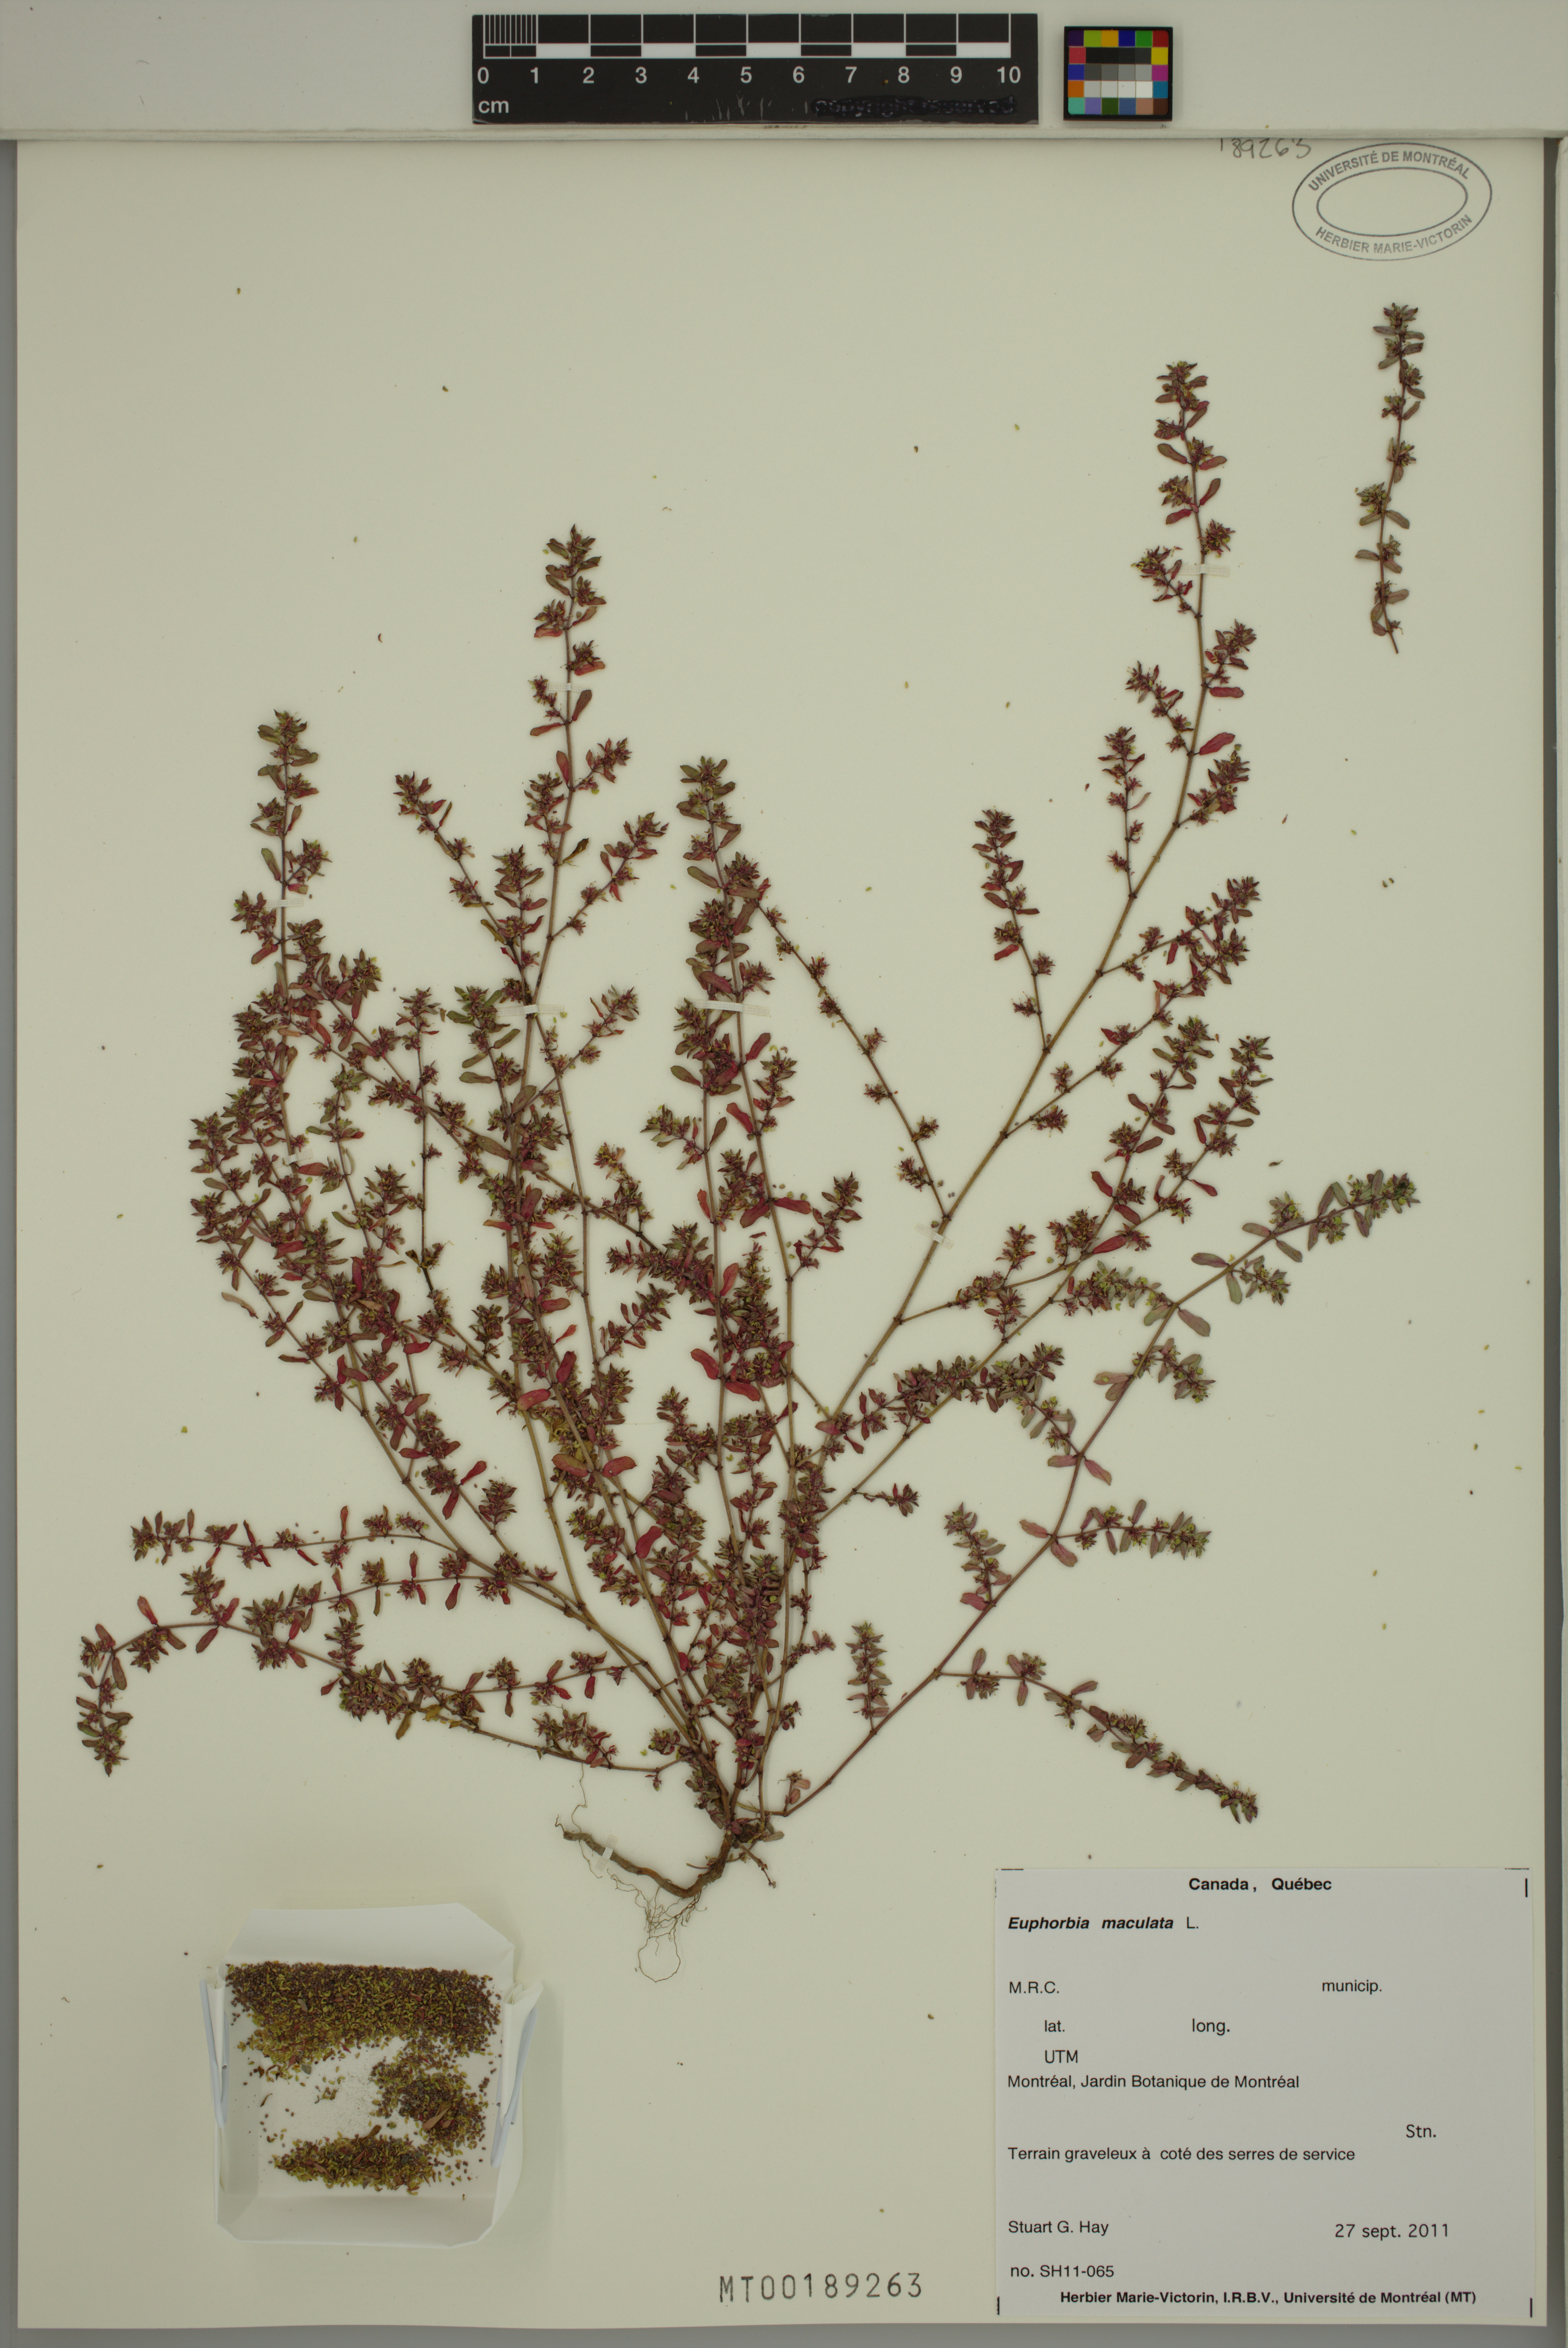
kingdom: Plantae
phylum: Tracheophyta
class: Magnoliopsida
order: Malpighiales
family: Euphorbiaceae
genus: Euphorbia
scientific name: Euphorbia maculata
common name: Spotted spurge
